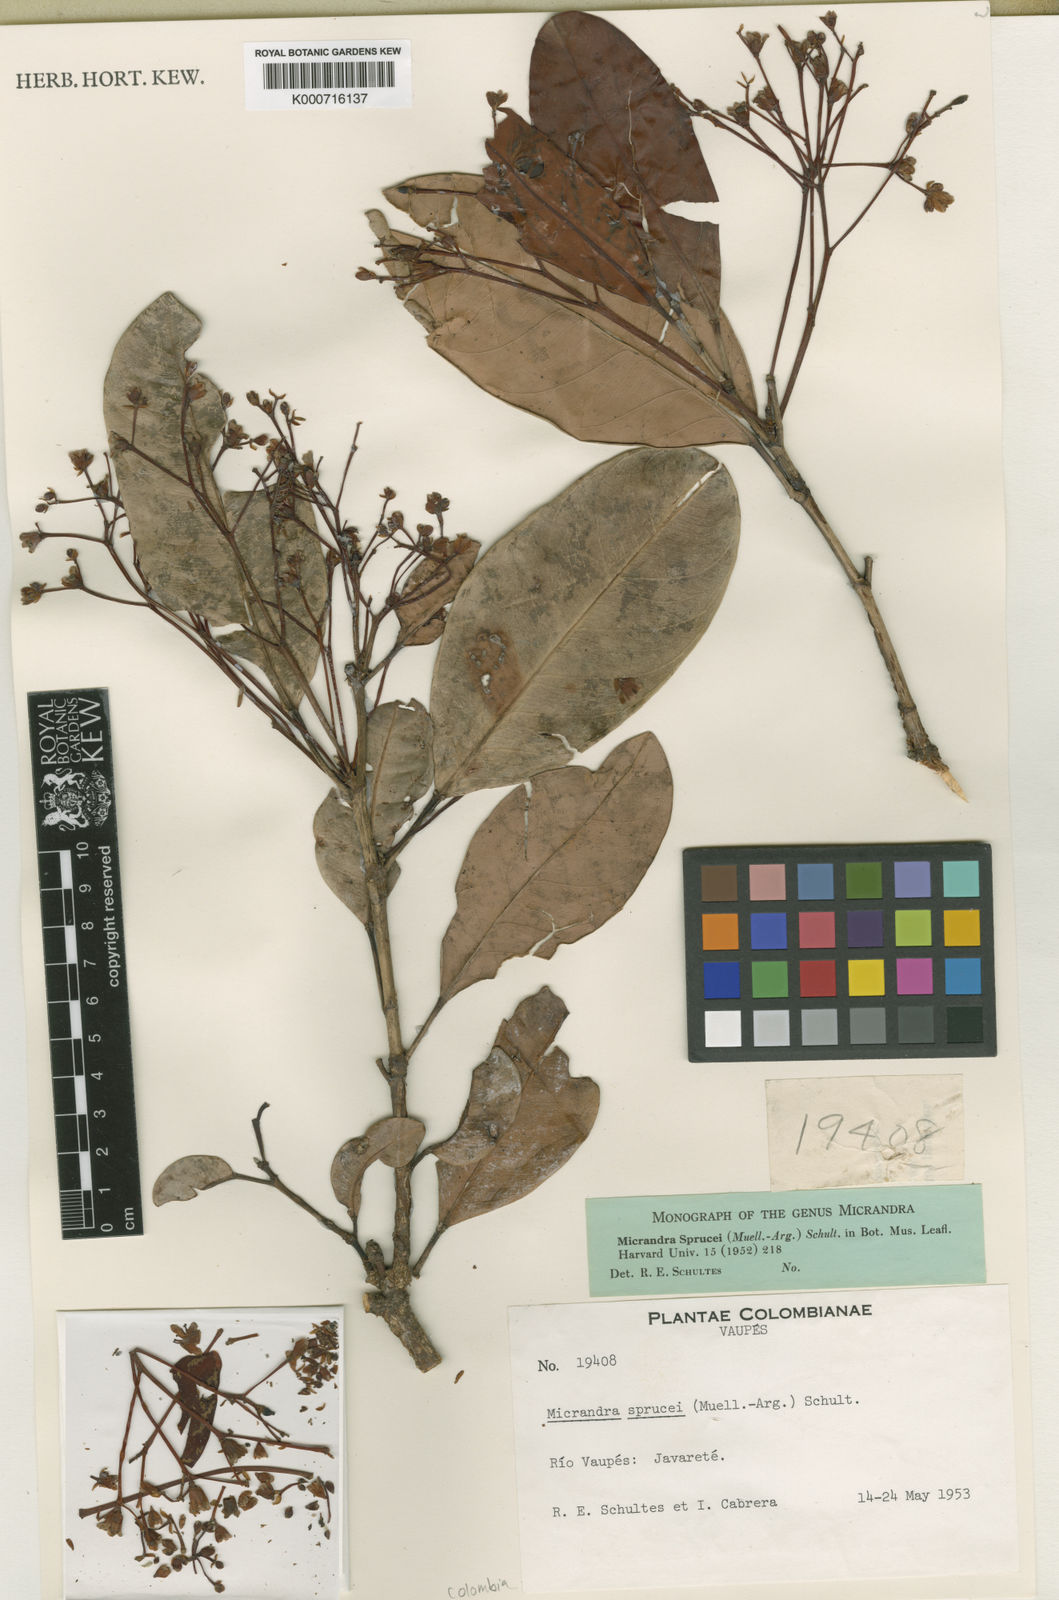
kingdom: Plantae
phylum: Tracheophyta
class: Magnoliopsida
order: Malpighiales
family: Euphorbiaceae
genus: Micrandra
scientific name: Micrandra
